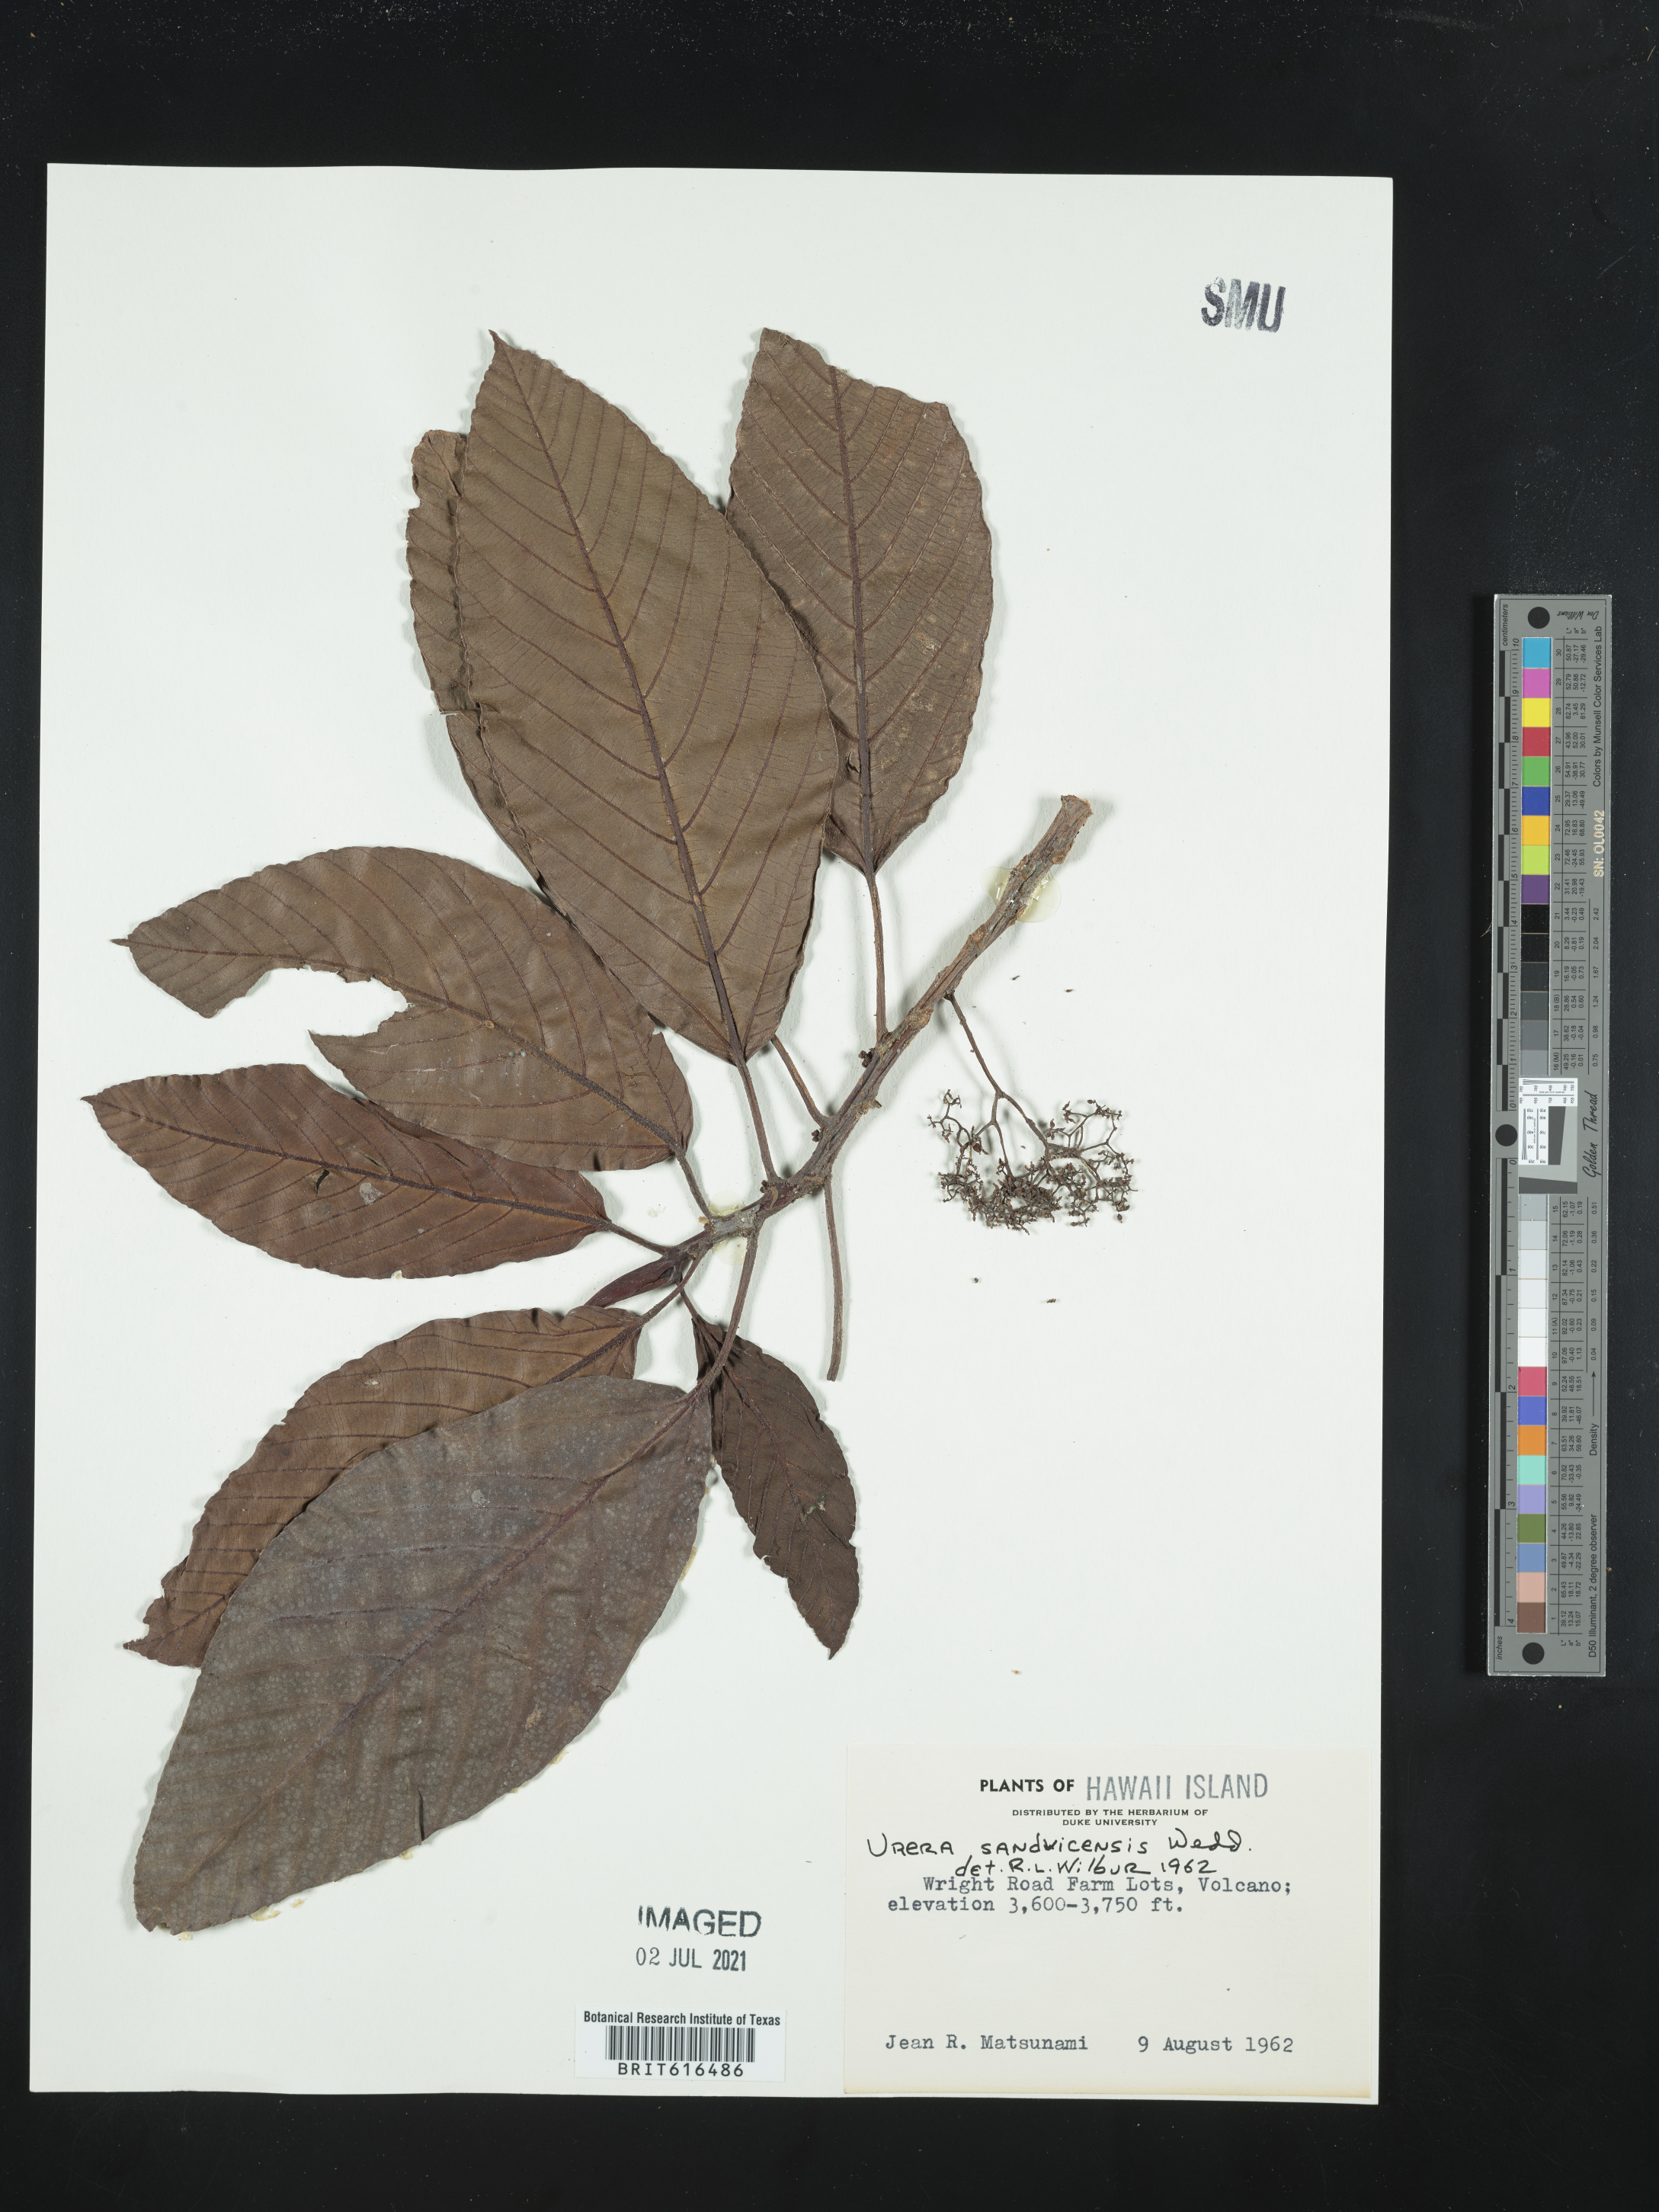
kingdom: Plantae
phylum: Tracheophyta
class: Magnoliopsida
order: Rosales
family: Urticaceae
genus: Touchardia
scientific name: Touchardia oahuensis
